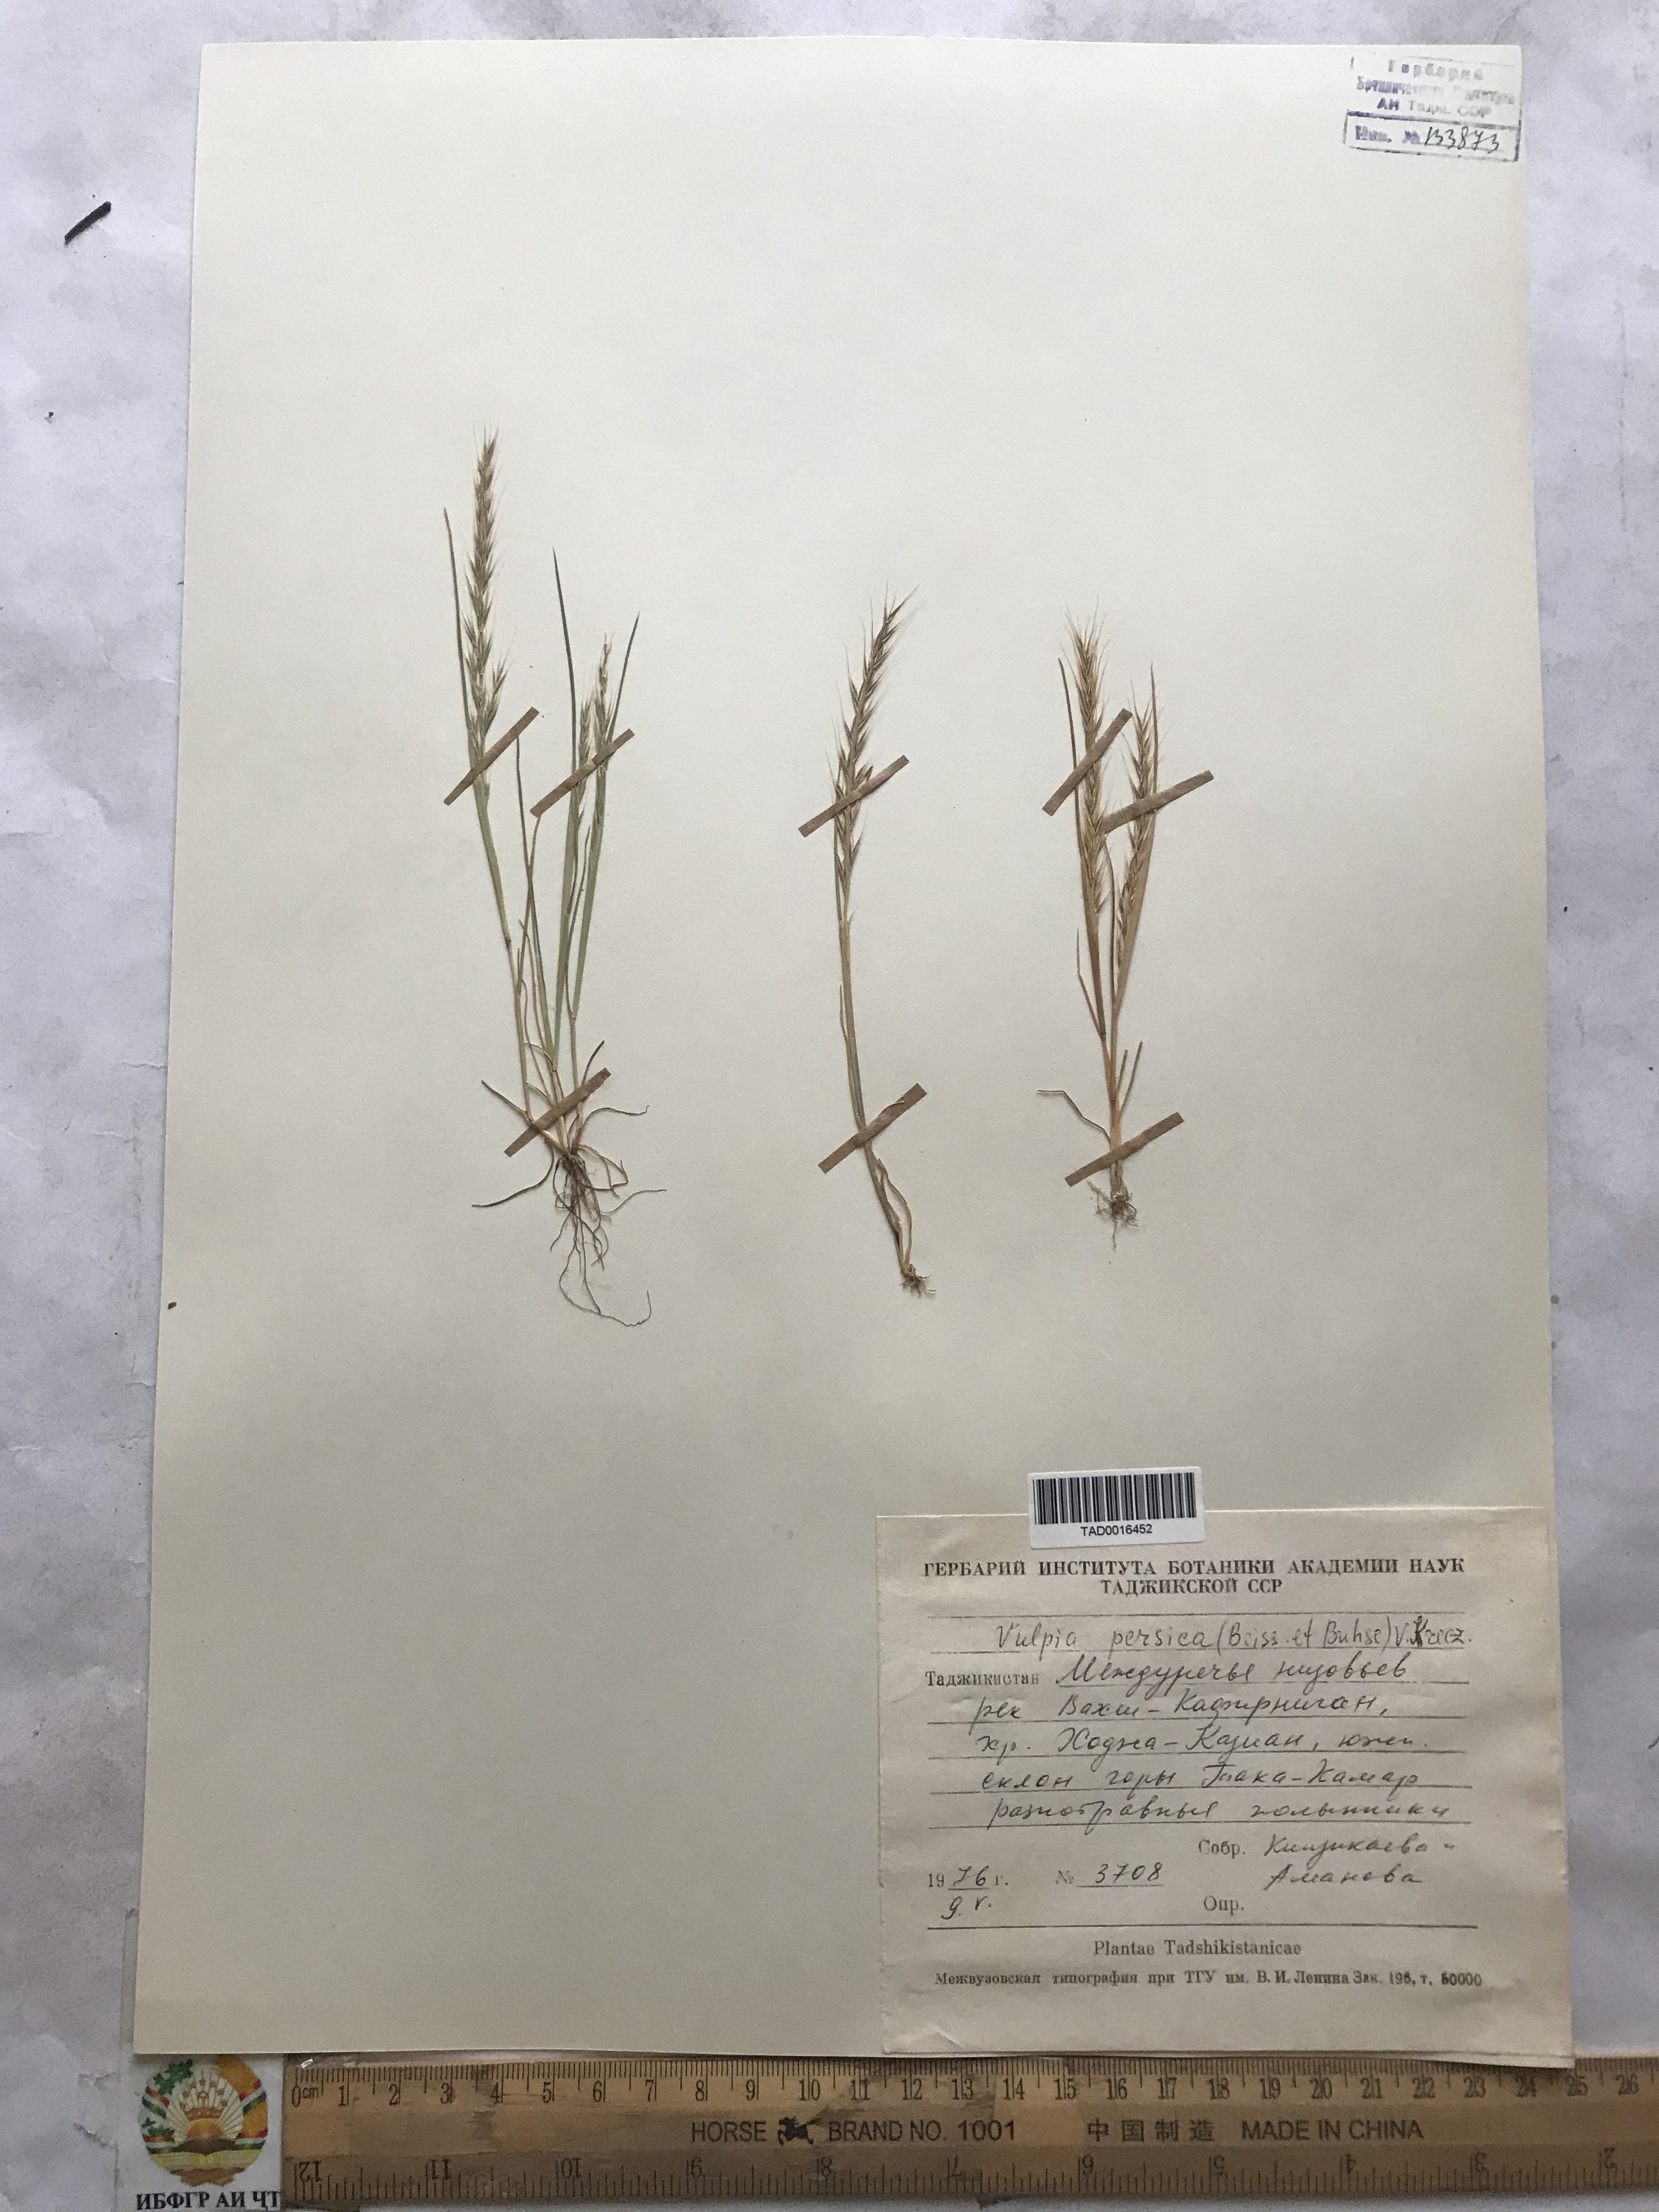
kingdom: Plantae
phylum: Tracheophyta
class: Liliopsida
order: Poales
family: Poaceae
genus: Festuca
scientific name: Festuca Vulpia persica
